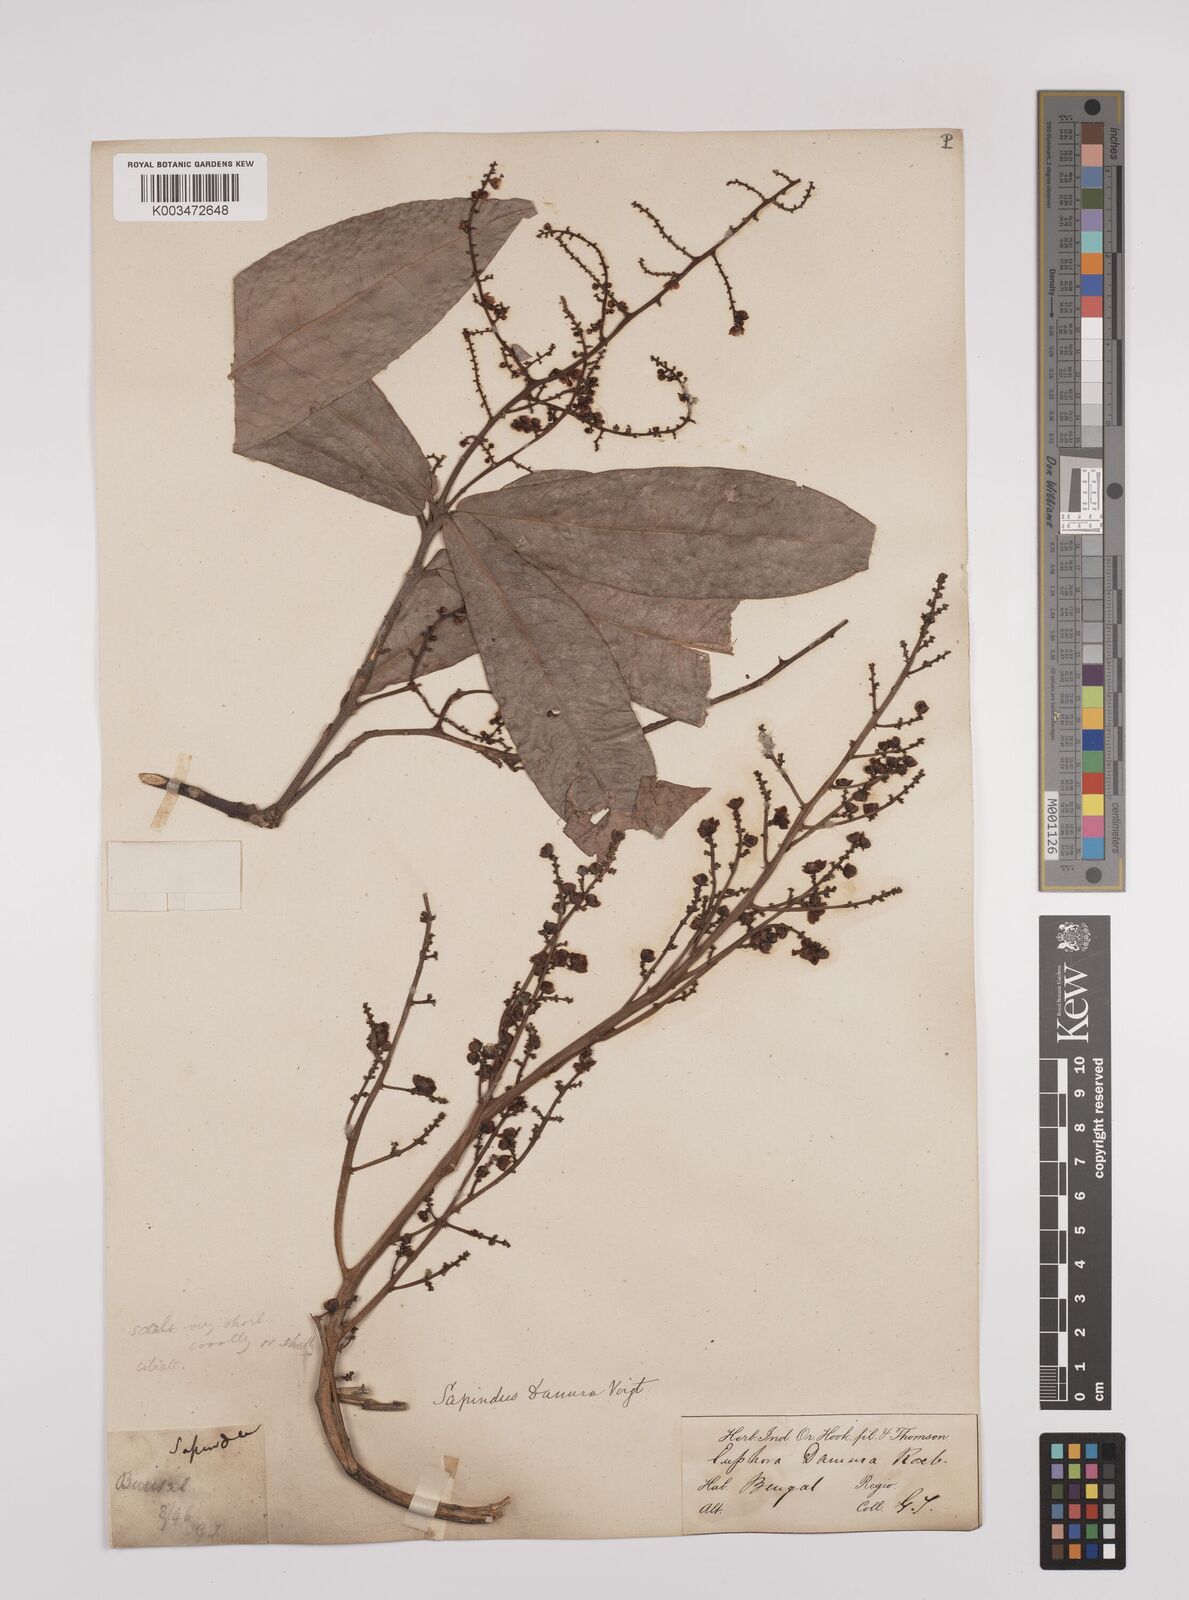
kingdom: Plantae
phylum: Tracheophyta
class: Magnoliopsida
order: Sapindales
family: Sapindaceae
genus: Lepisanthes
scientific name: Lepisanthes senegalensis
